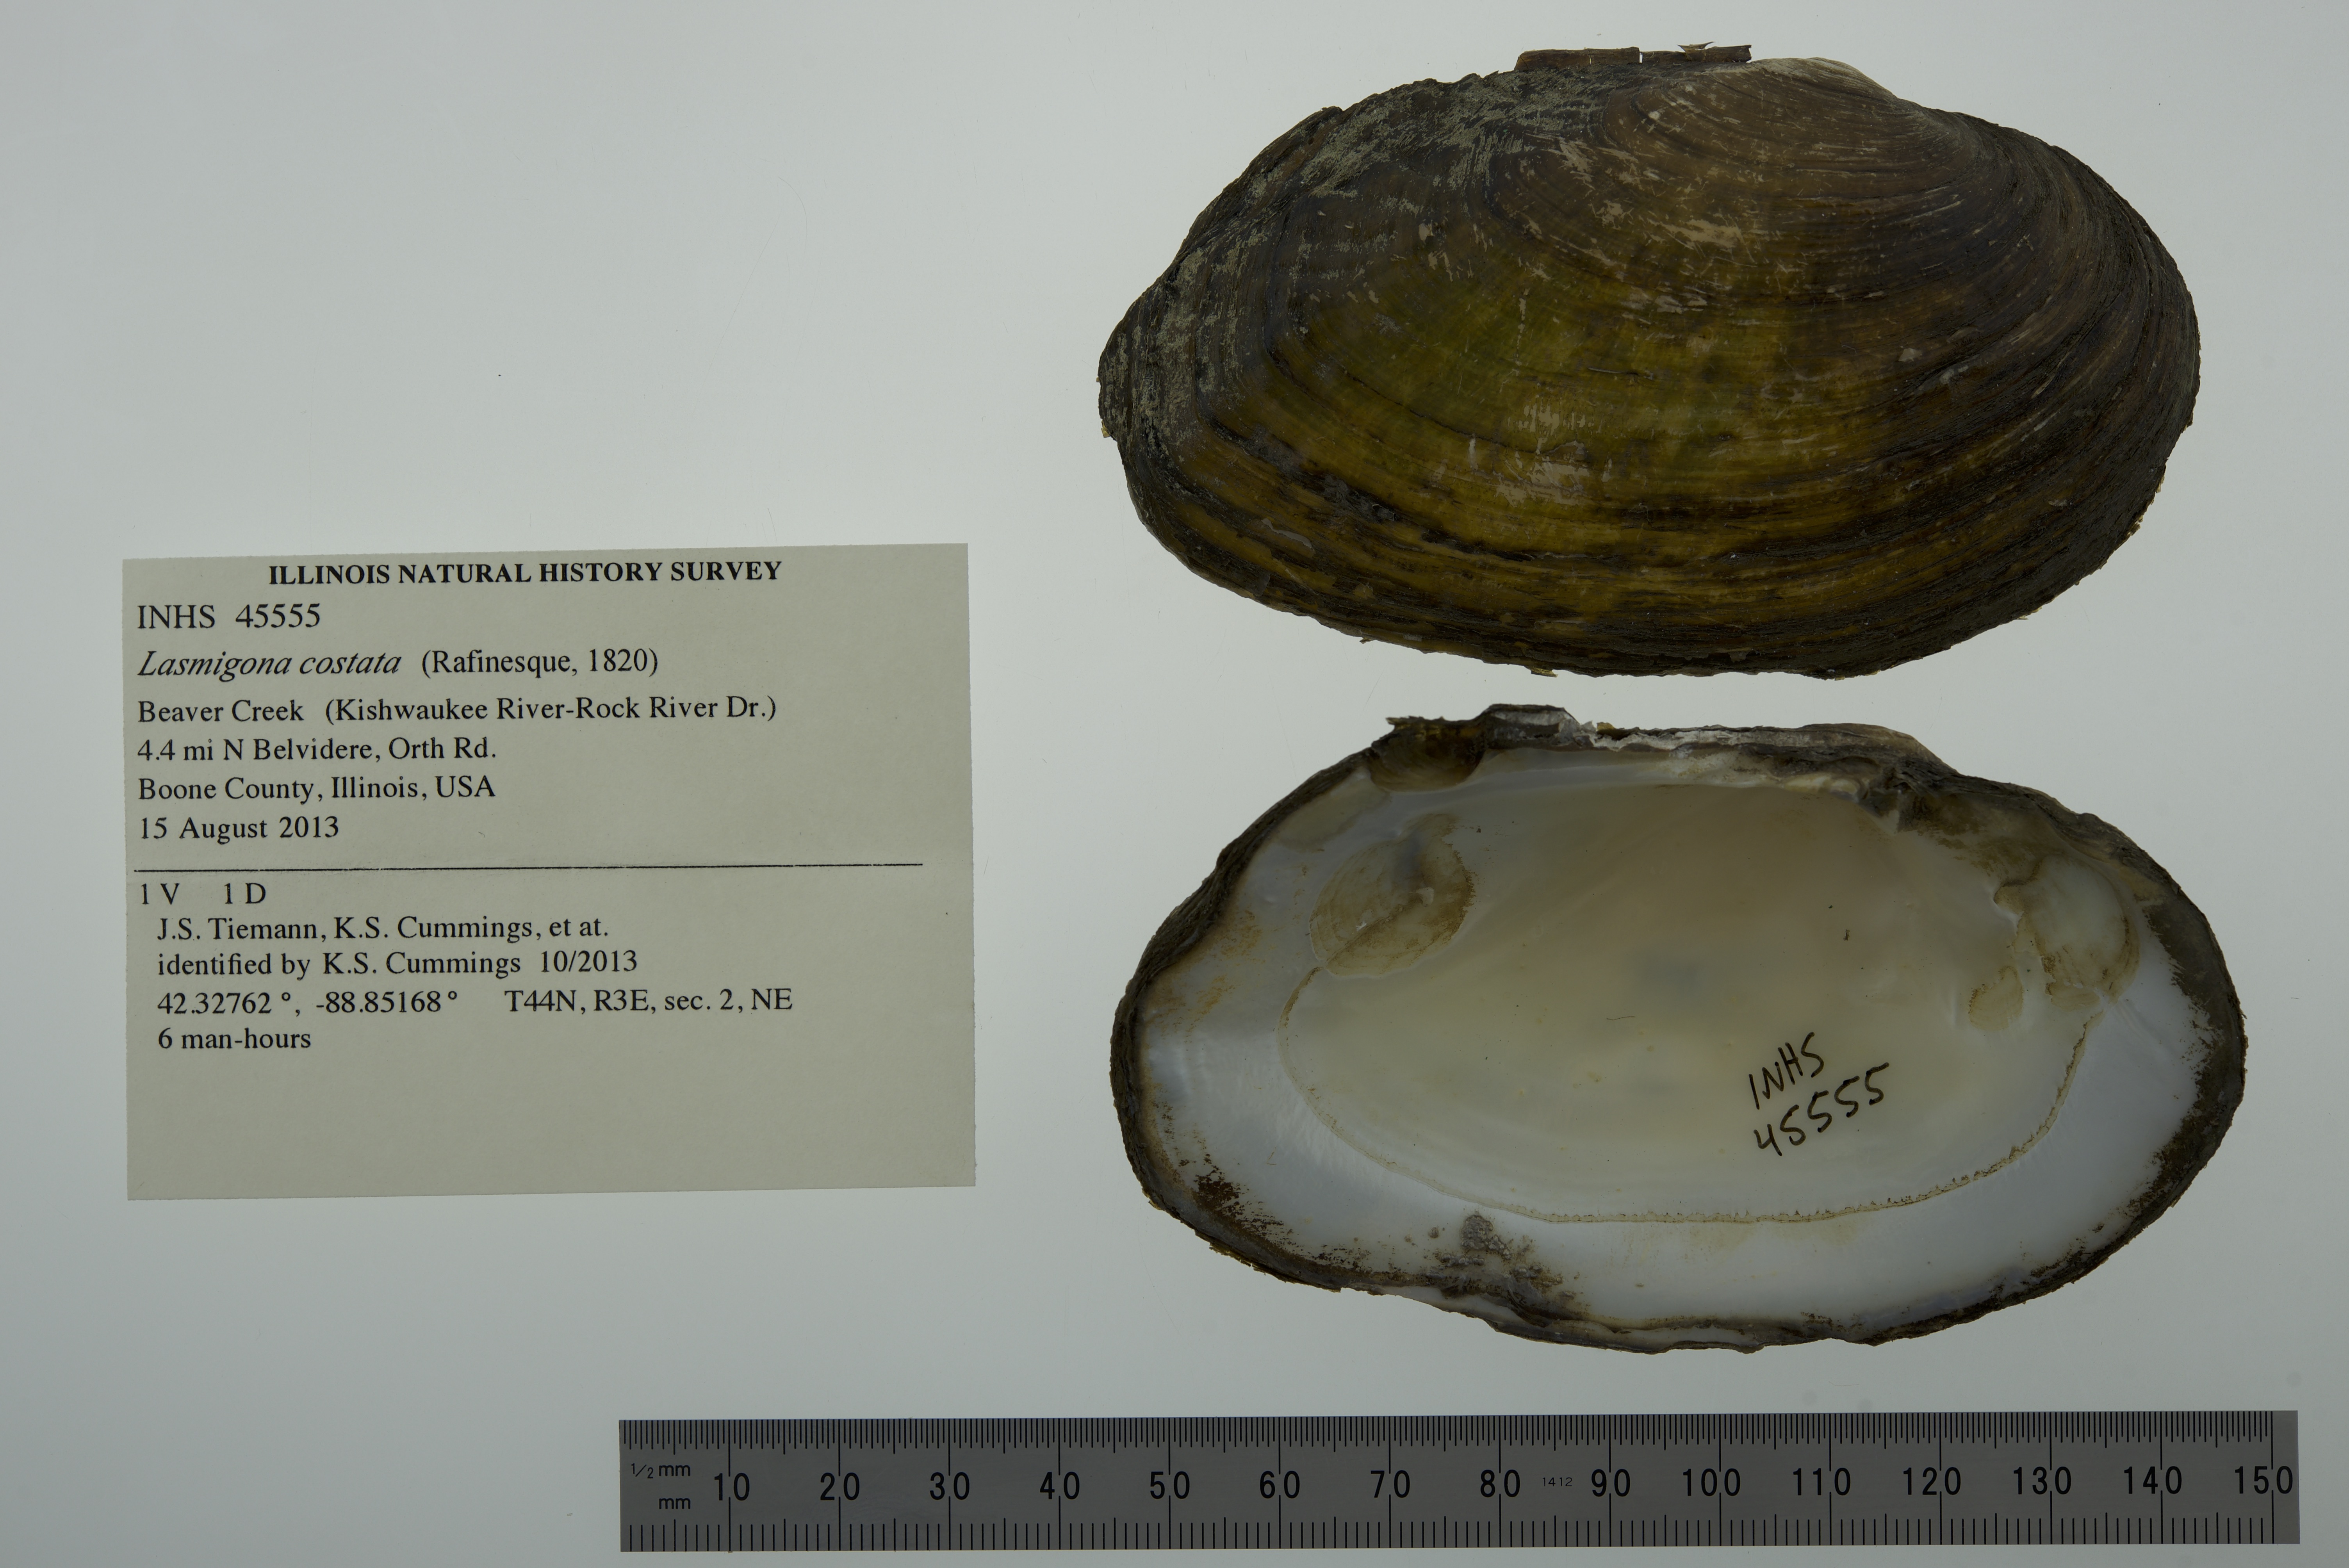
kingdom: Animalia
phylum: Mollusca
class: Bivalvia
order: Unionida
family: Unionidae
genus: Lasmigona
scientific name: Lasmigona costata
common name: Flutedshell
